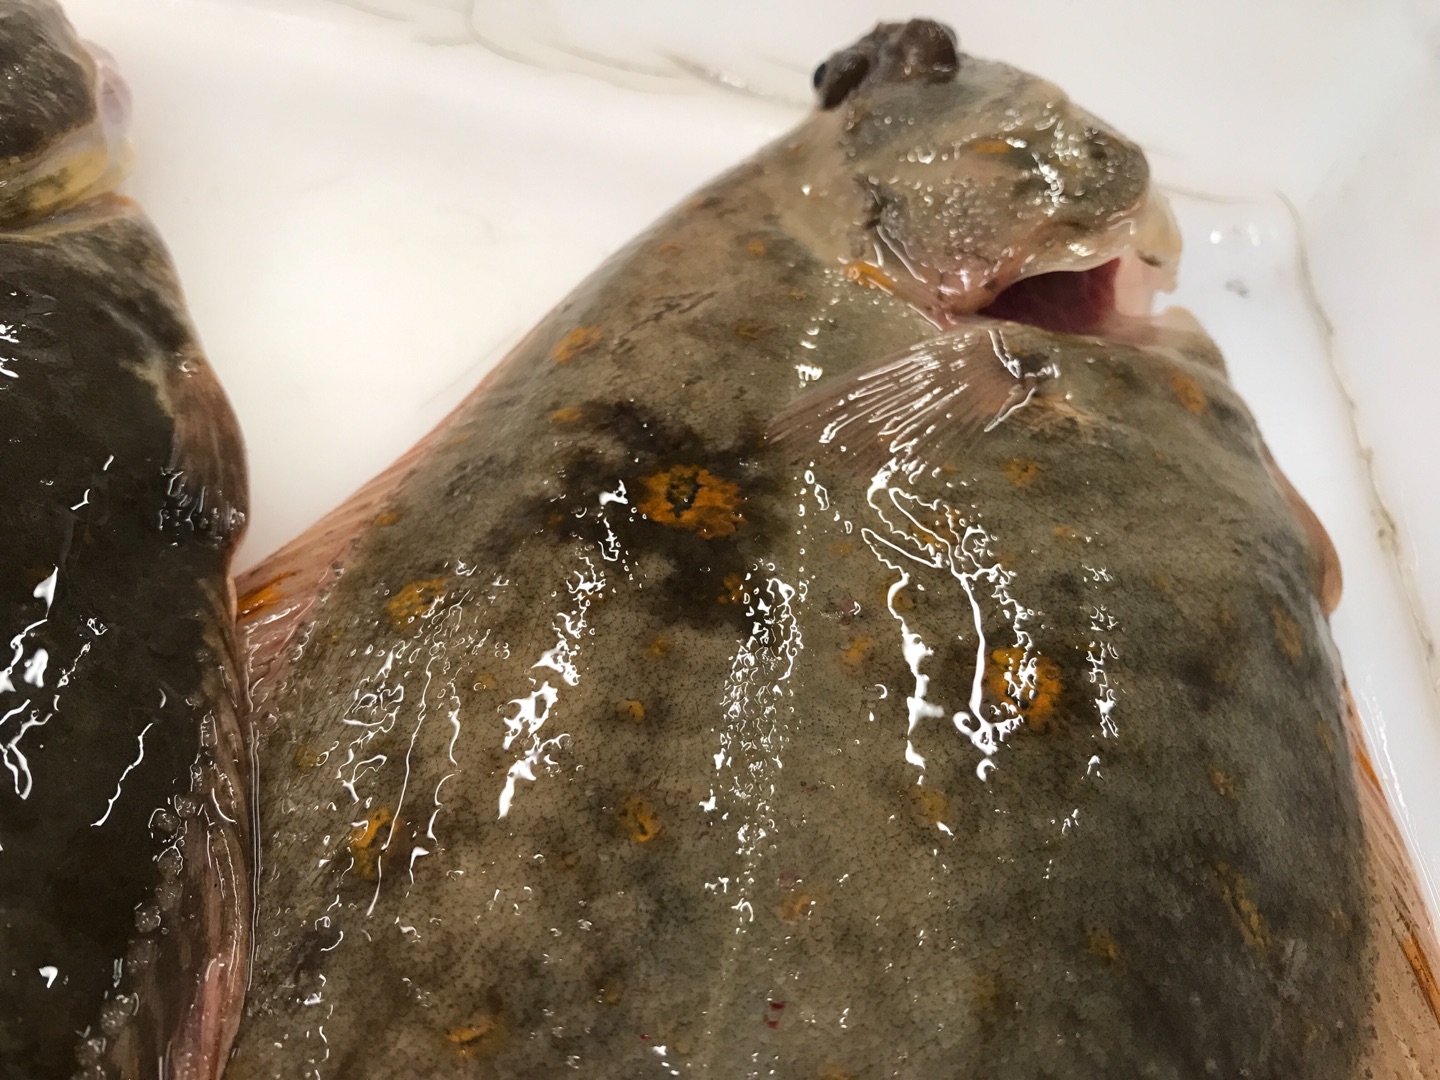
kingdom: Animalia
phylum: Chordata
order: Pleuronectiformes
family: Pleuronectidae
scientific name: Pleuronectidae
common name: Rødspættefamilien
